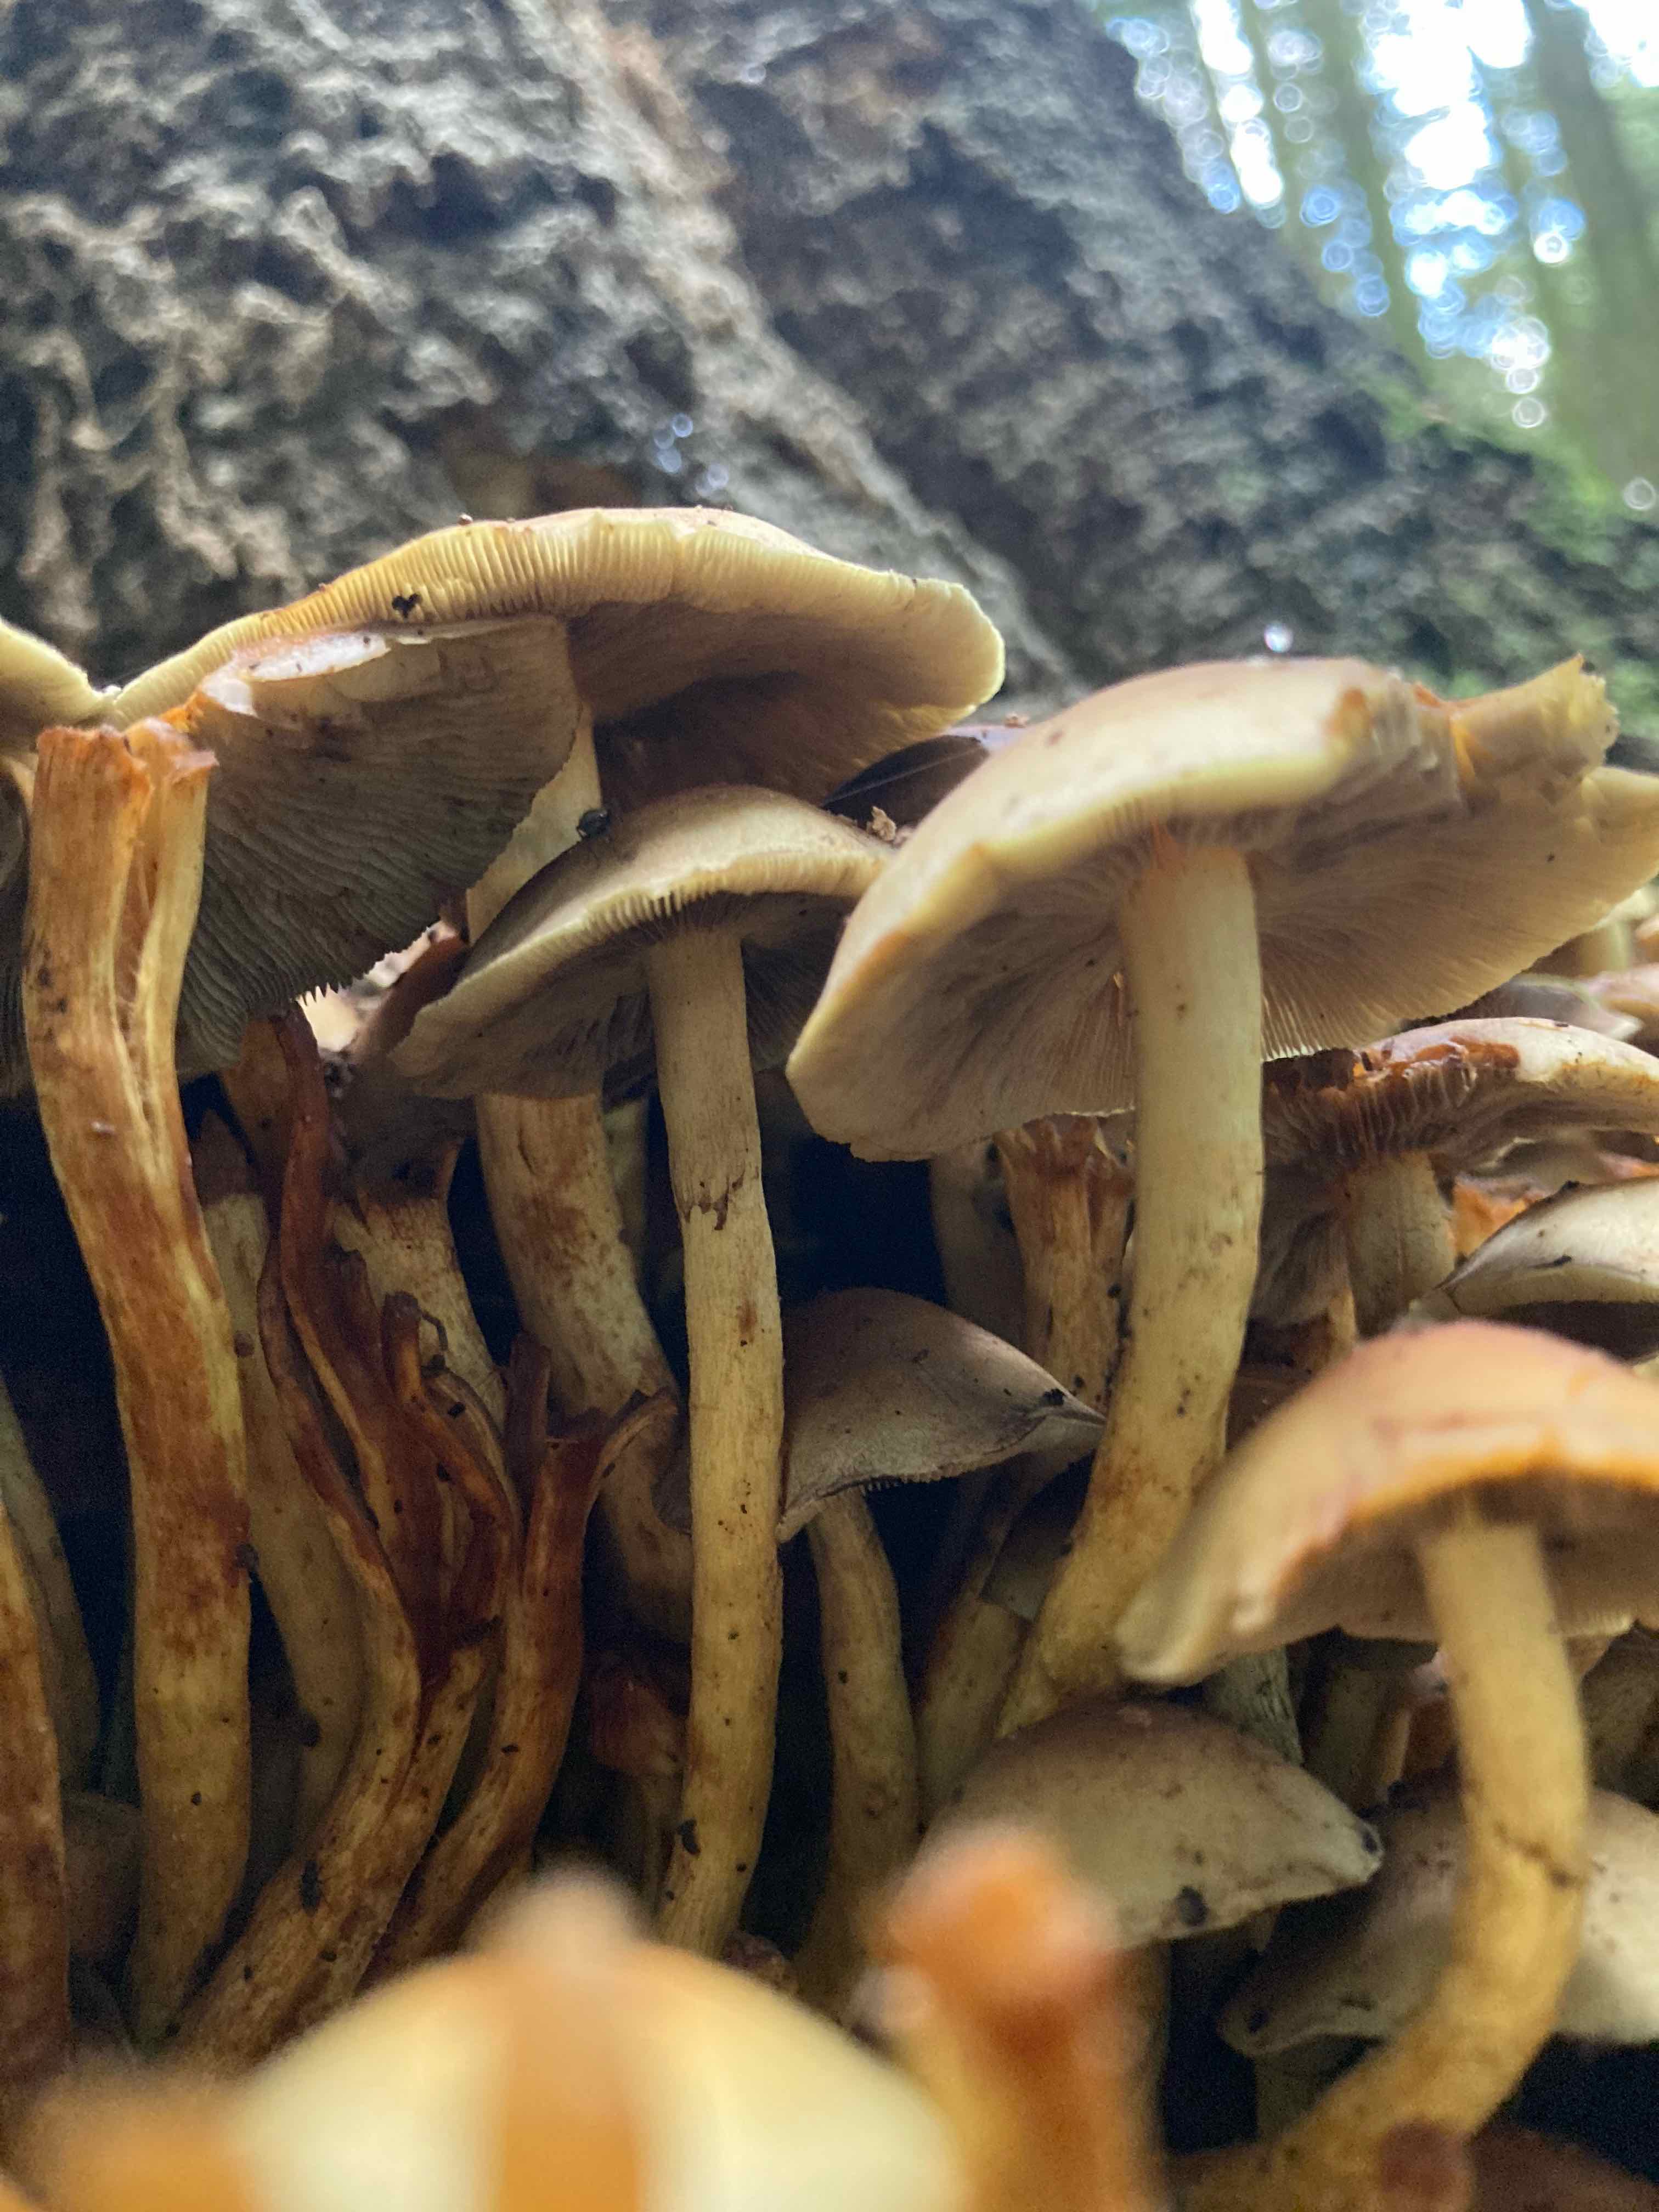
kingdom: Fungi
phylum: Basidiomycota
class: Agaricomycetes
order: Agaricales
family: Strophariaceae
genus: Hypholoma
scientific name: Hypholoma fasciculare
